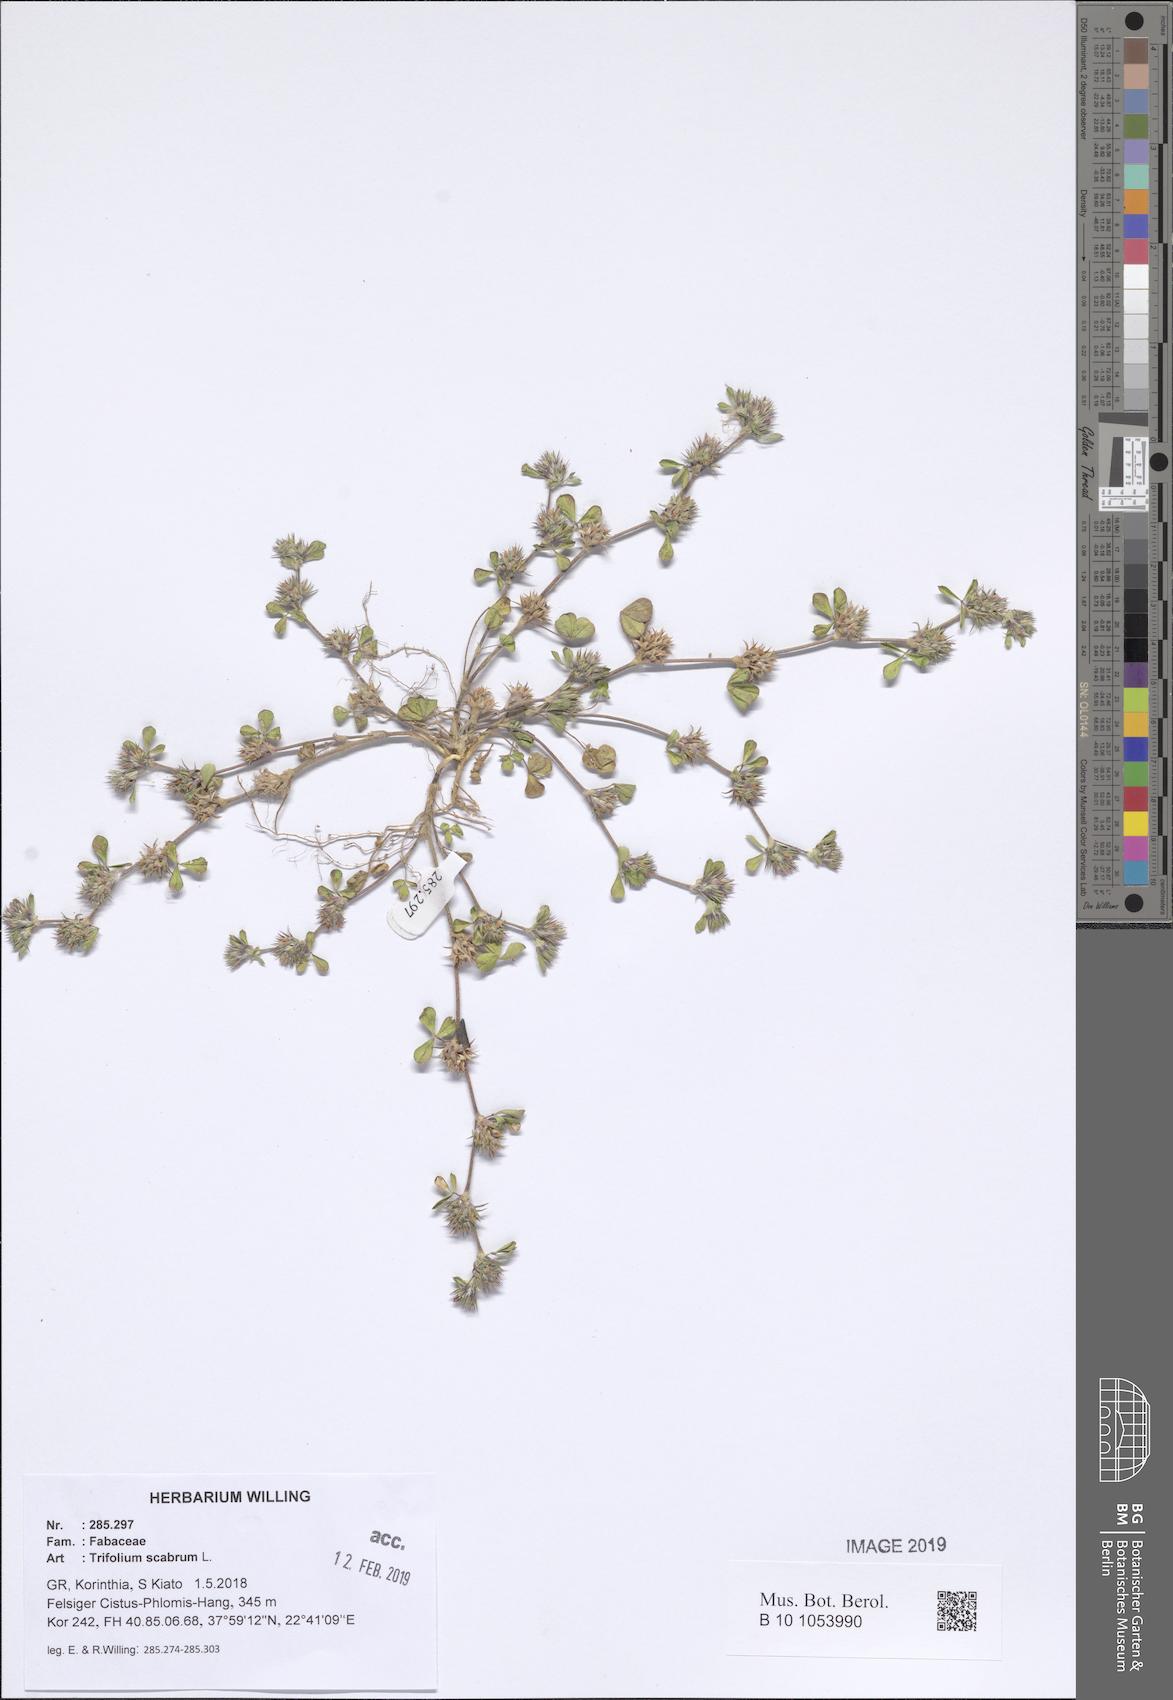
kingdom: Plantae
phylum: Tracheophyta
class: Magnoliopsida
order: Fabales
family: Fabaceae
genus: Trifolium
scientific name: Trifolium scabrum
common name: Rough clover
